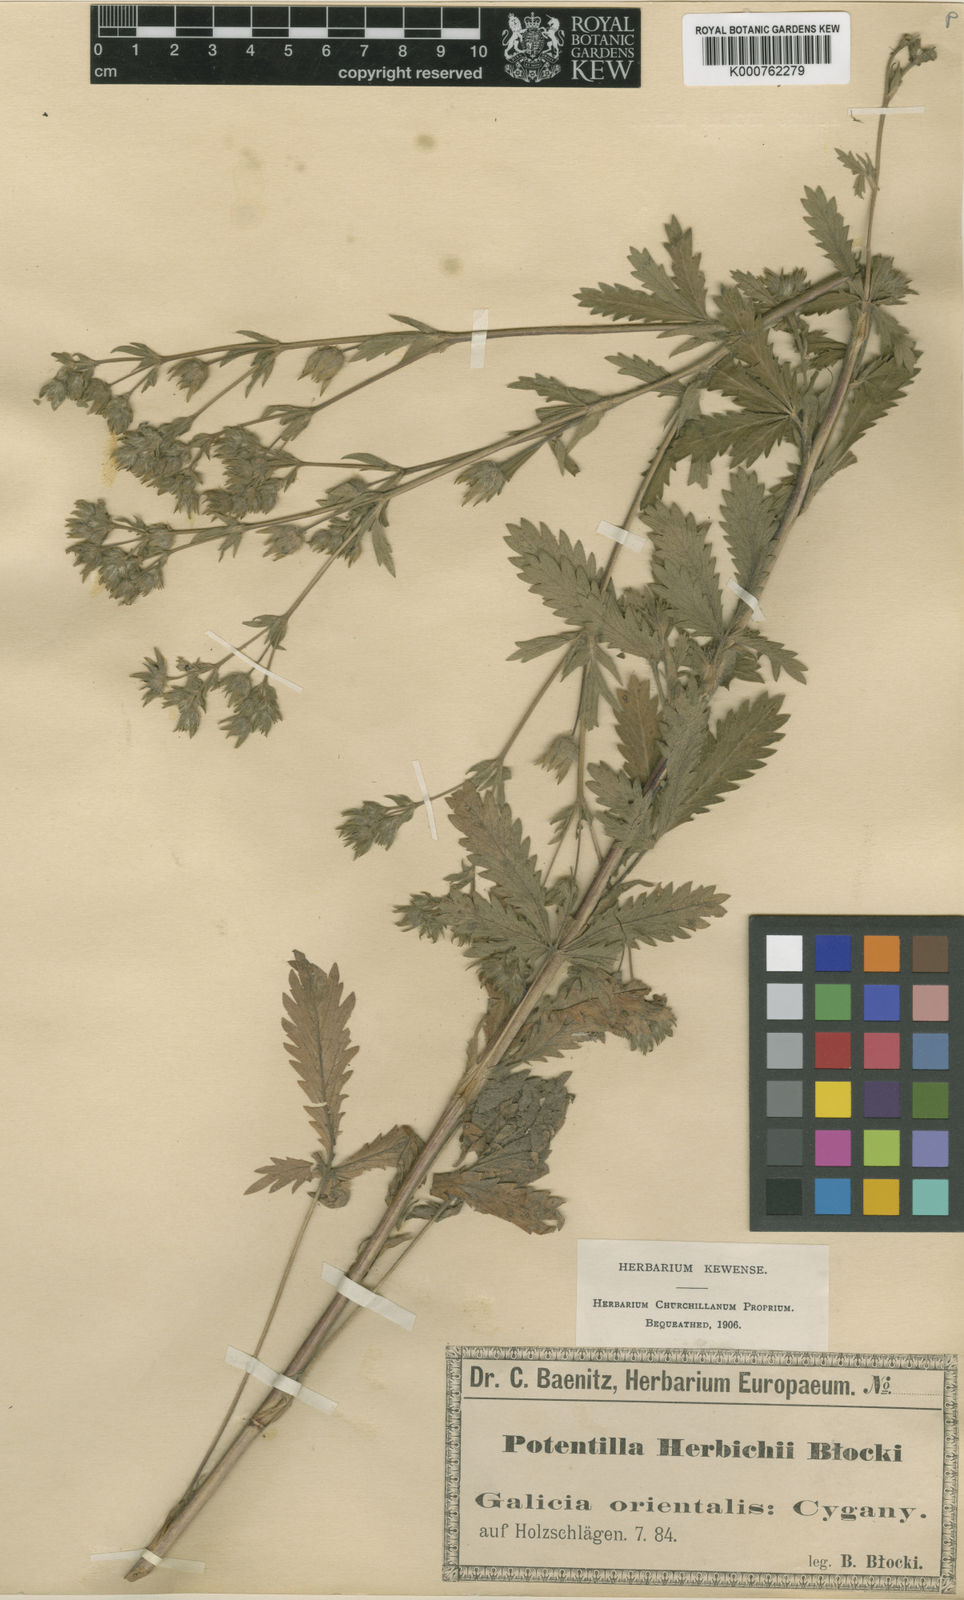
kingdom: Plantae
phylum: Tracheophyta
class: Magnoliopsida
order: Rosales
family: Rosaceae
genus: Potentilla
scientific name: Potentilla recta
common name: Sulphur cinquefoil
